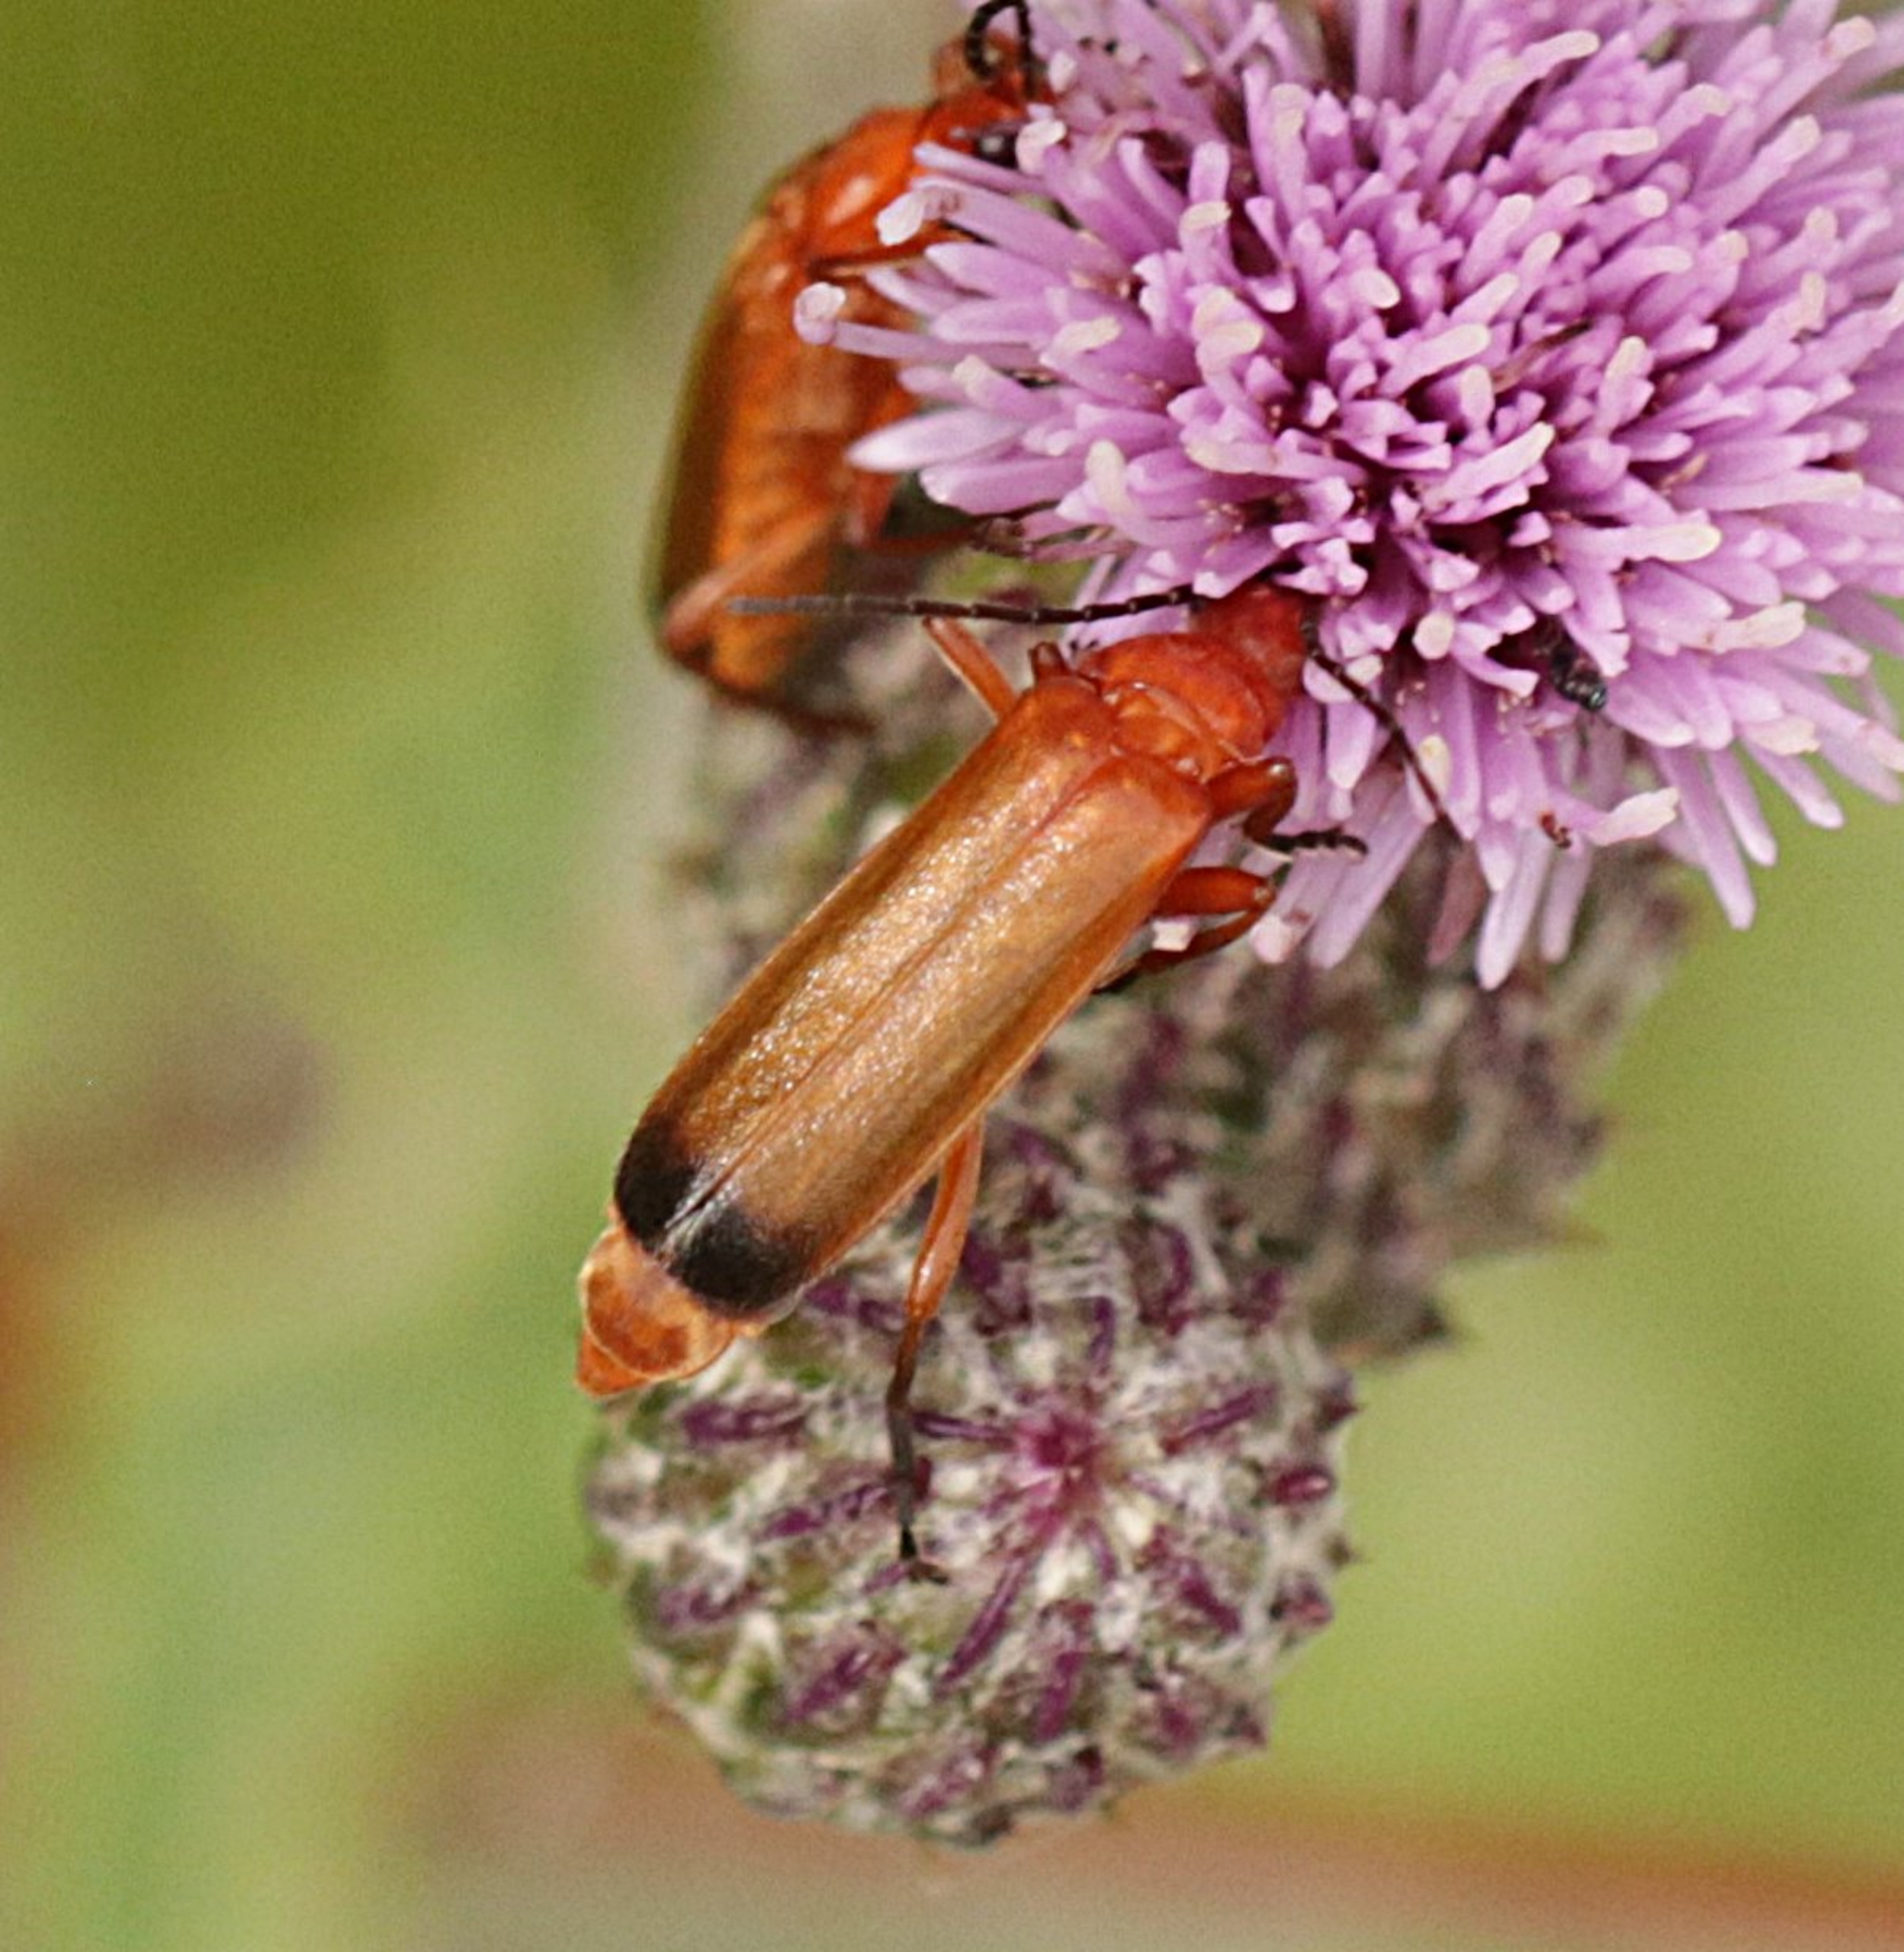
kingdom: Animalia
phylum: Arthropoda
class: Insecta
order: Coleoptera
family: Cantharidae
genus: Rhagonycha
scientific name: Rhagonycha fulva
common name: Præstebille
